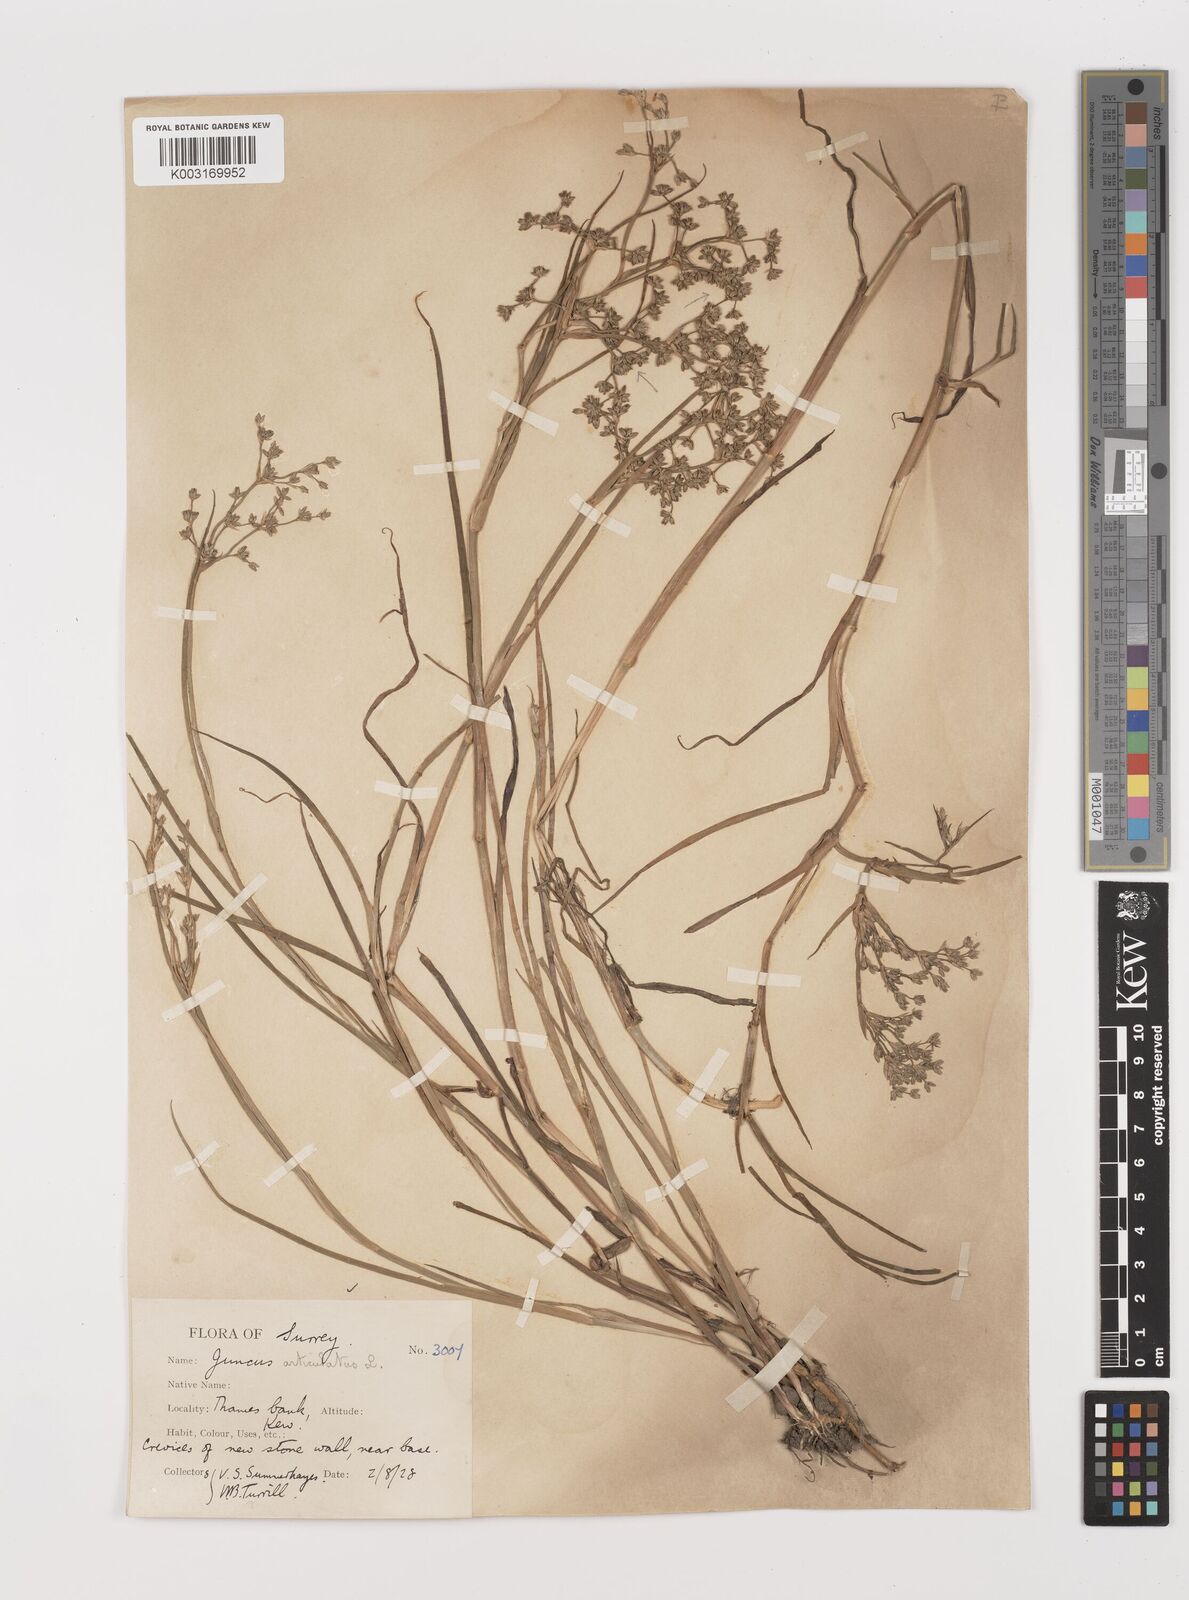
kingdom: Plantae
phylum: Tracheophyta
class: Liliopsida
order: Poales
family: Juncaceae
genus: Juncus
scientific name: Juncus articulatus
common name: Jointed rush
